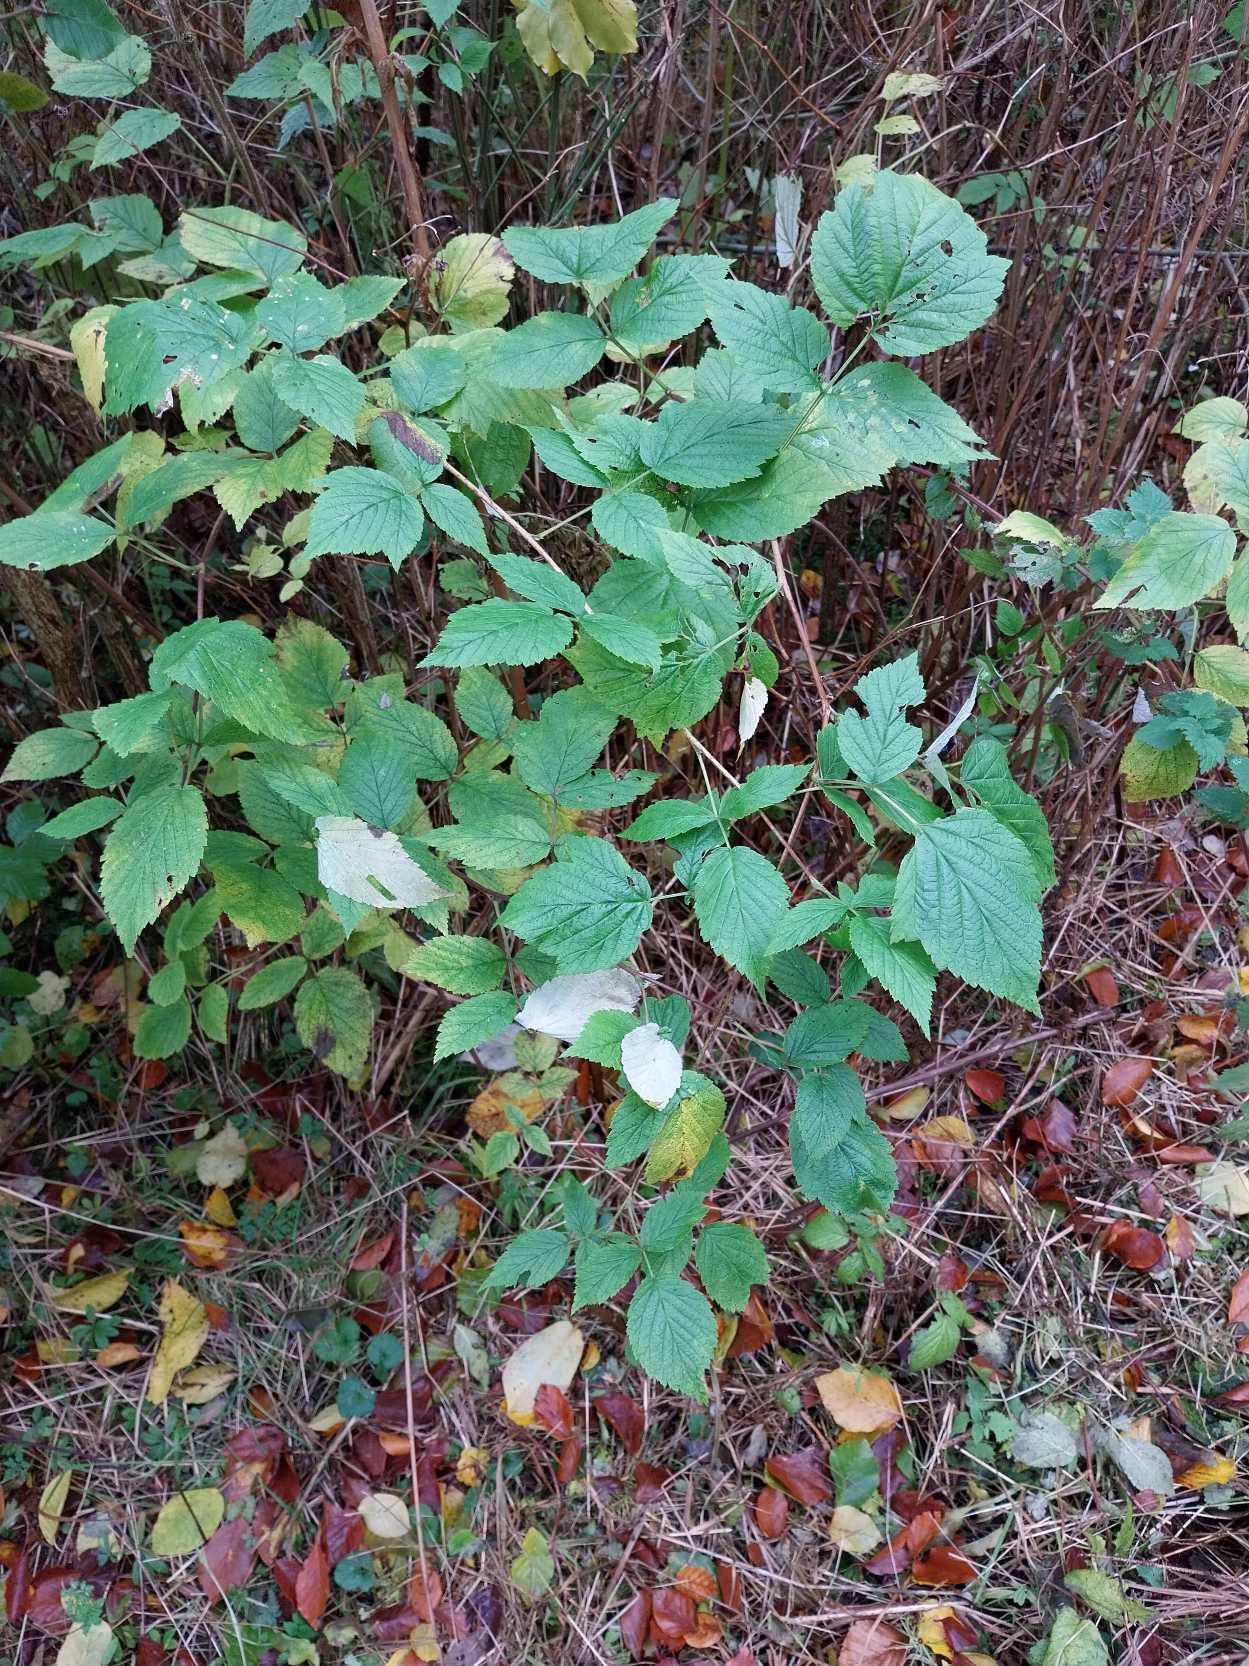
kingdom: Plantae
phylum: Tracheophyta
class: Magnoliopsida
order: Rosales
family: Rosaceae
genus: Rubus
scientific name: Rubus idaeus
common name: Hindbær
